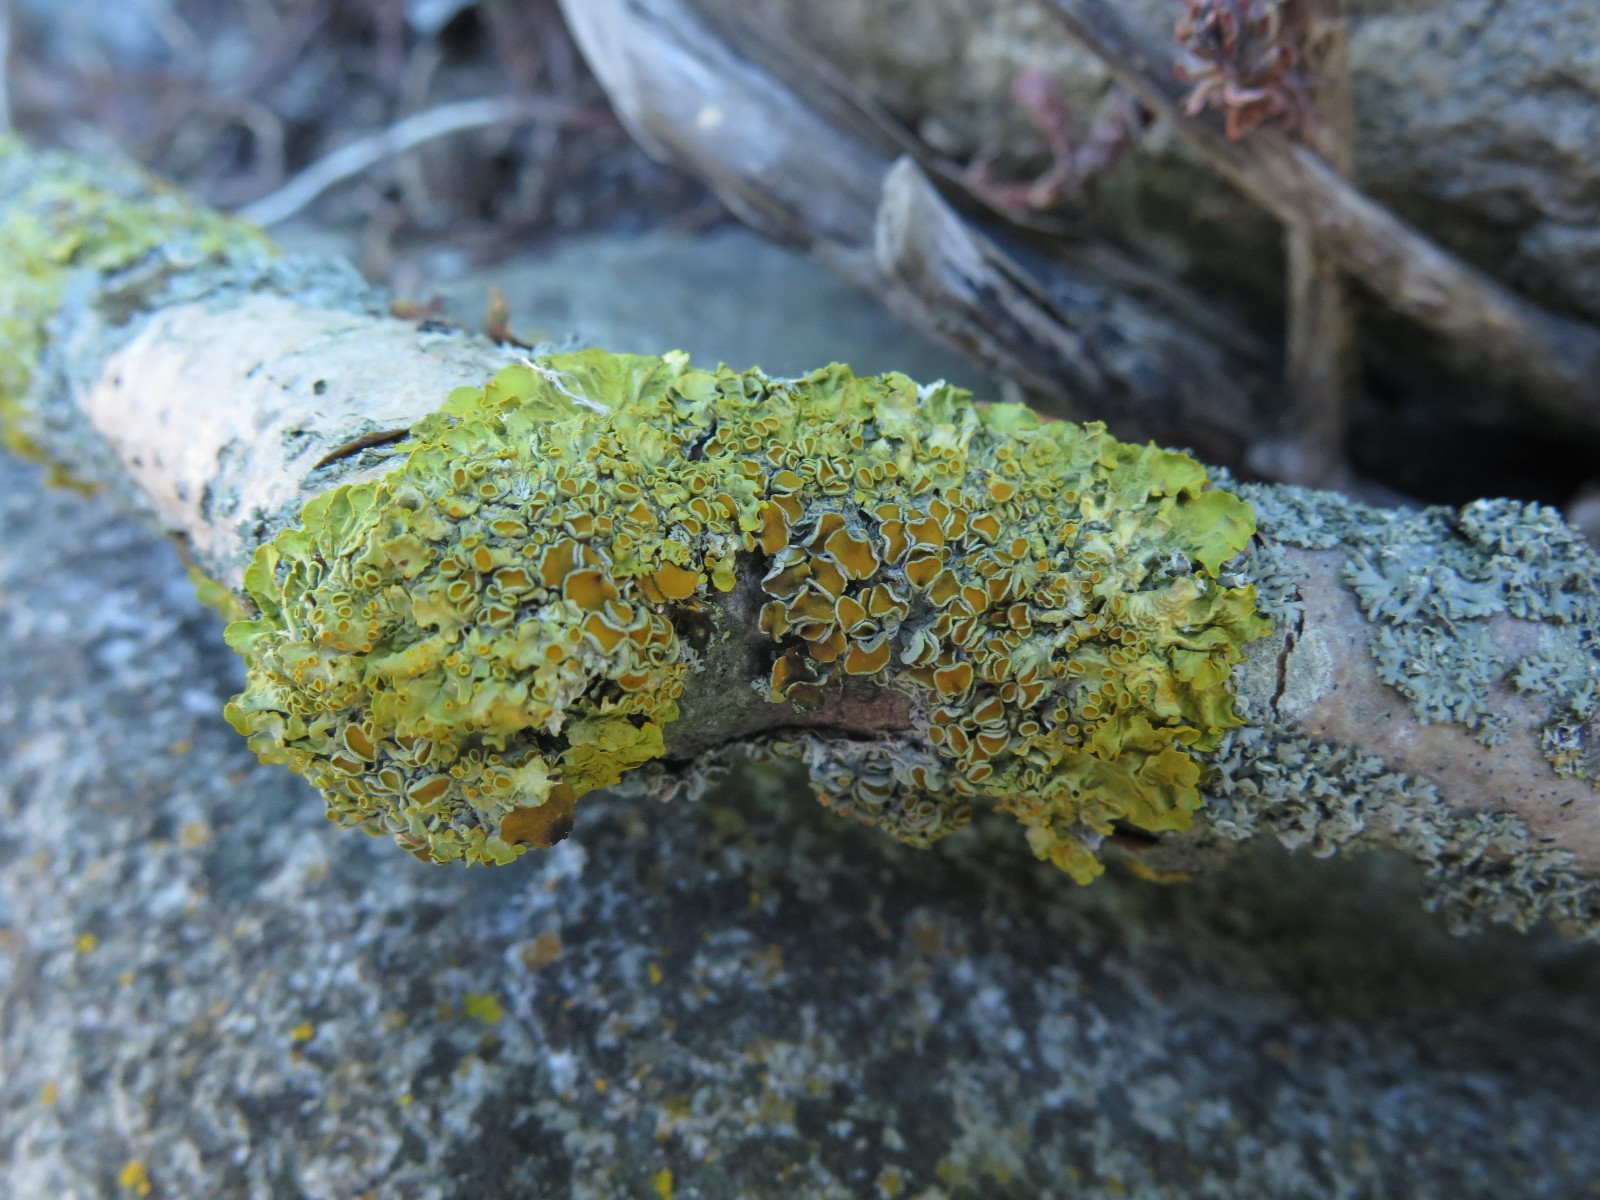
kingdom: Fungi
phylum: Ascomycota
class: Lecanoromycetes
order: Teloschistales
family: Teloschistaceae
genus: Xanthoria
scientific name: Xanthoria parietina
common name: almindelig væggelav
